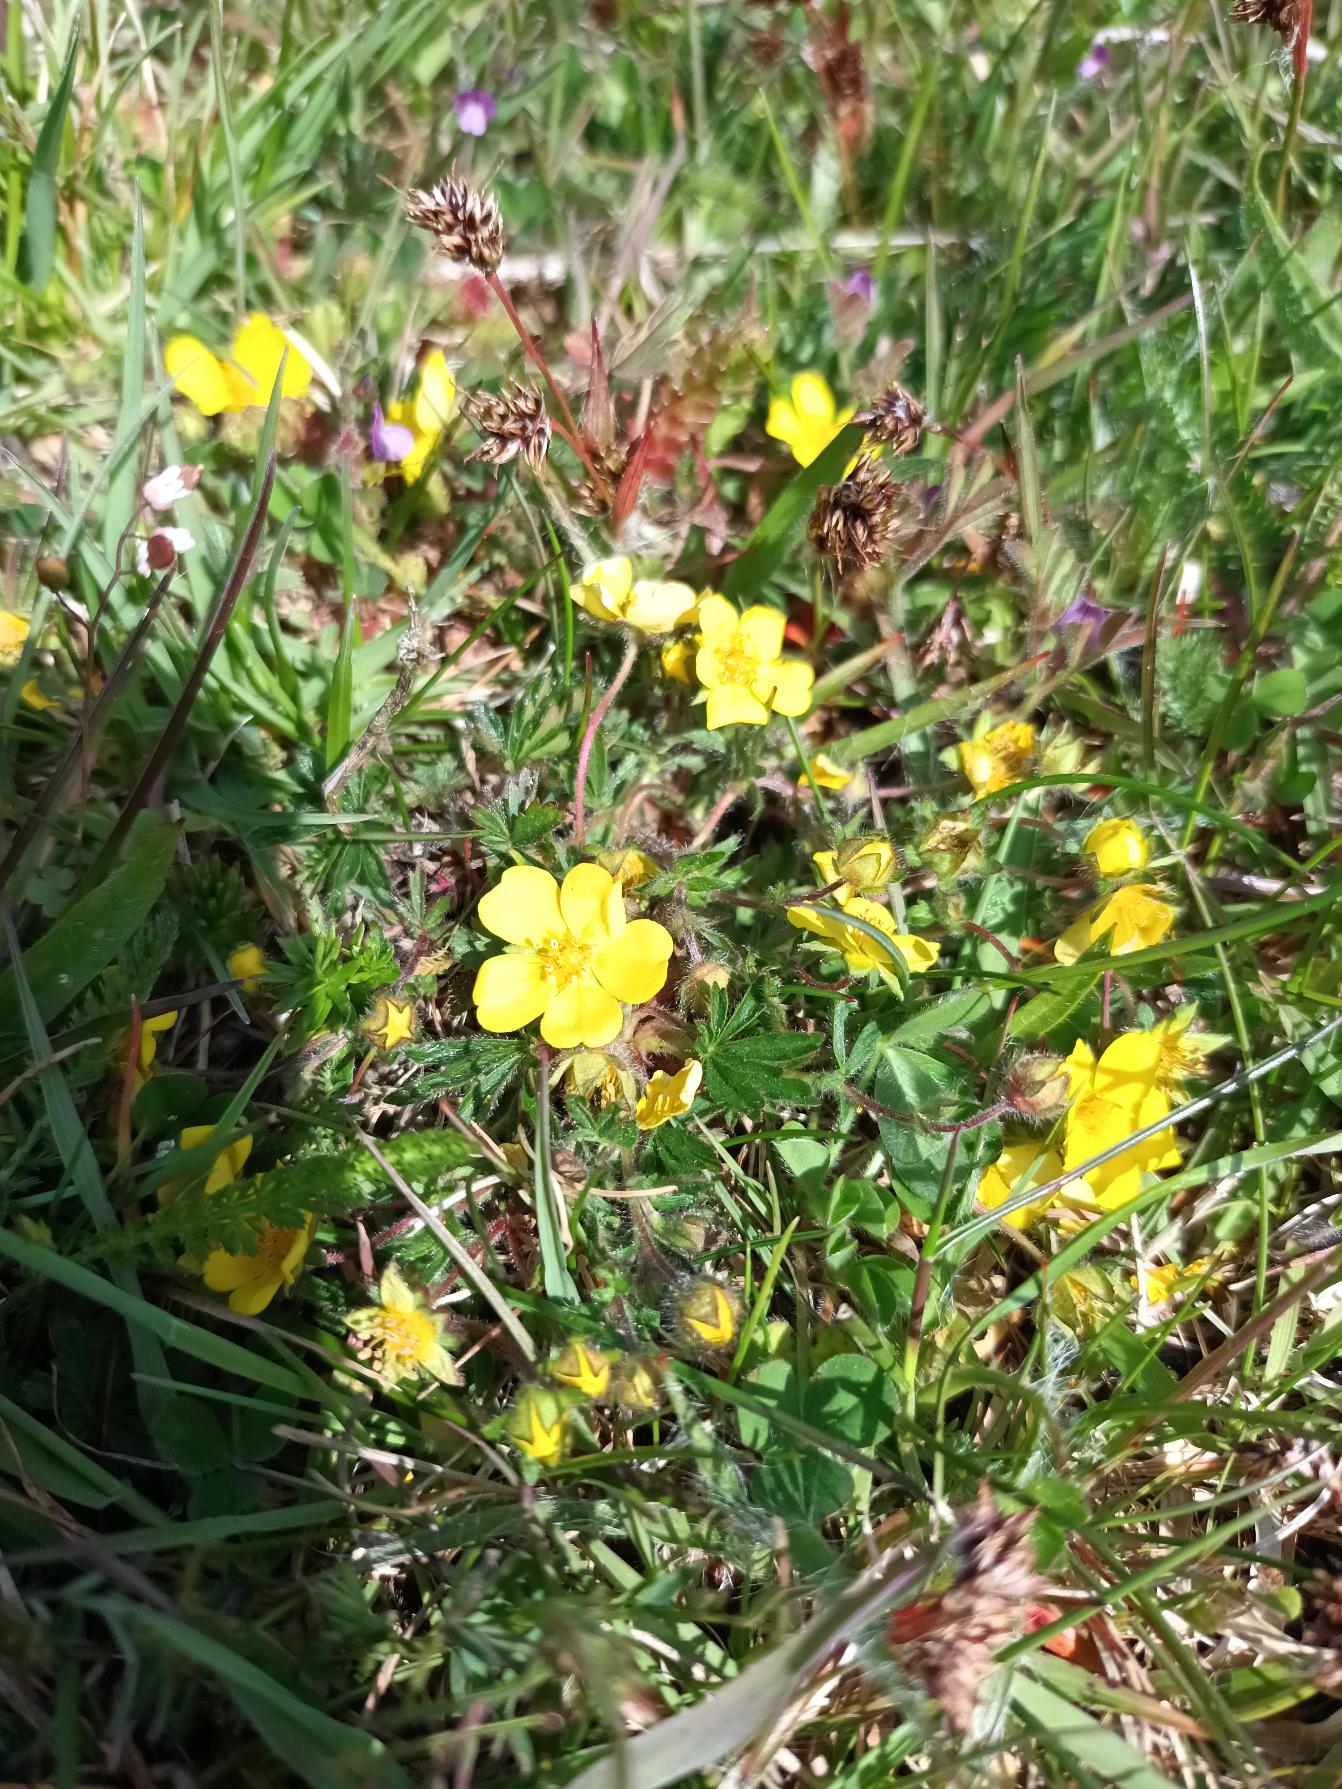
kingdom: Plantae
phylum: Tracheophyta
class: Magnoliopsida
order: Rosales
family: Rosaceae
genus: Potentilla
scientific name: Potentilla heptaphylla
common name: Mat potentil
